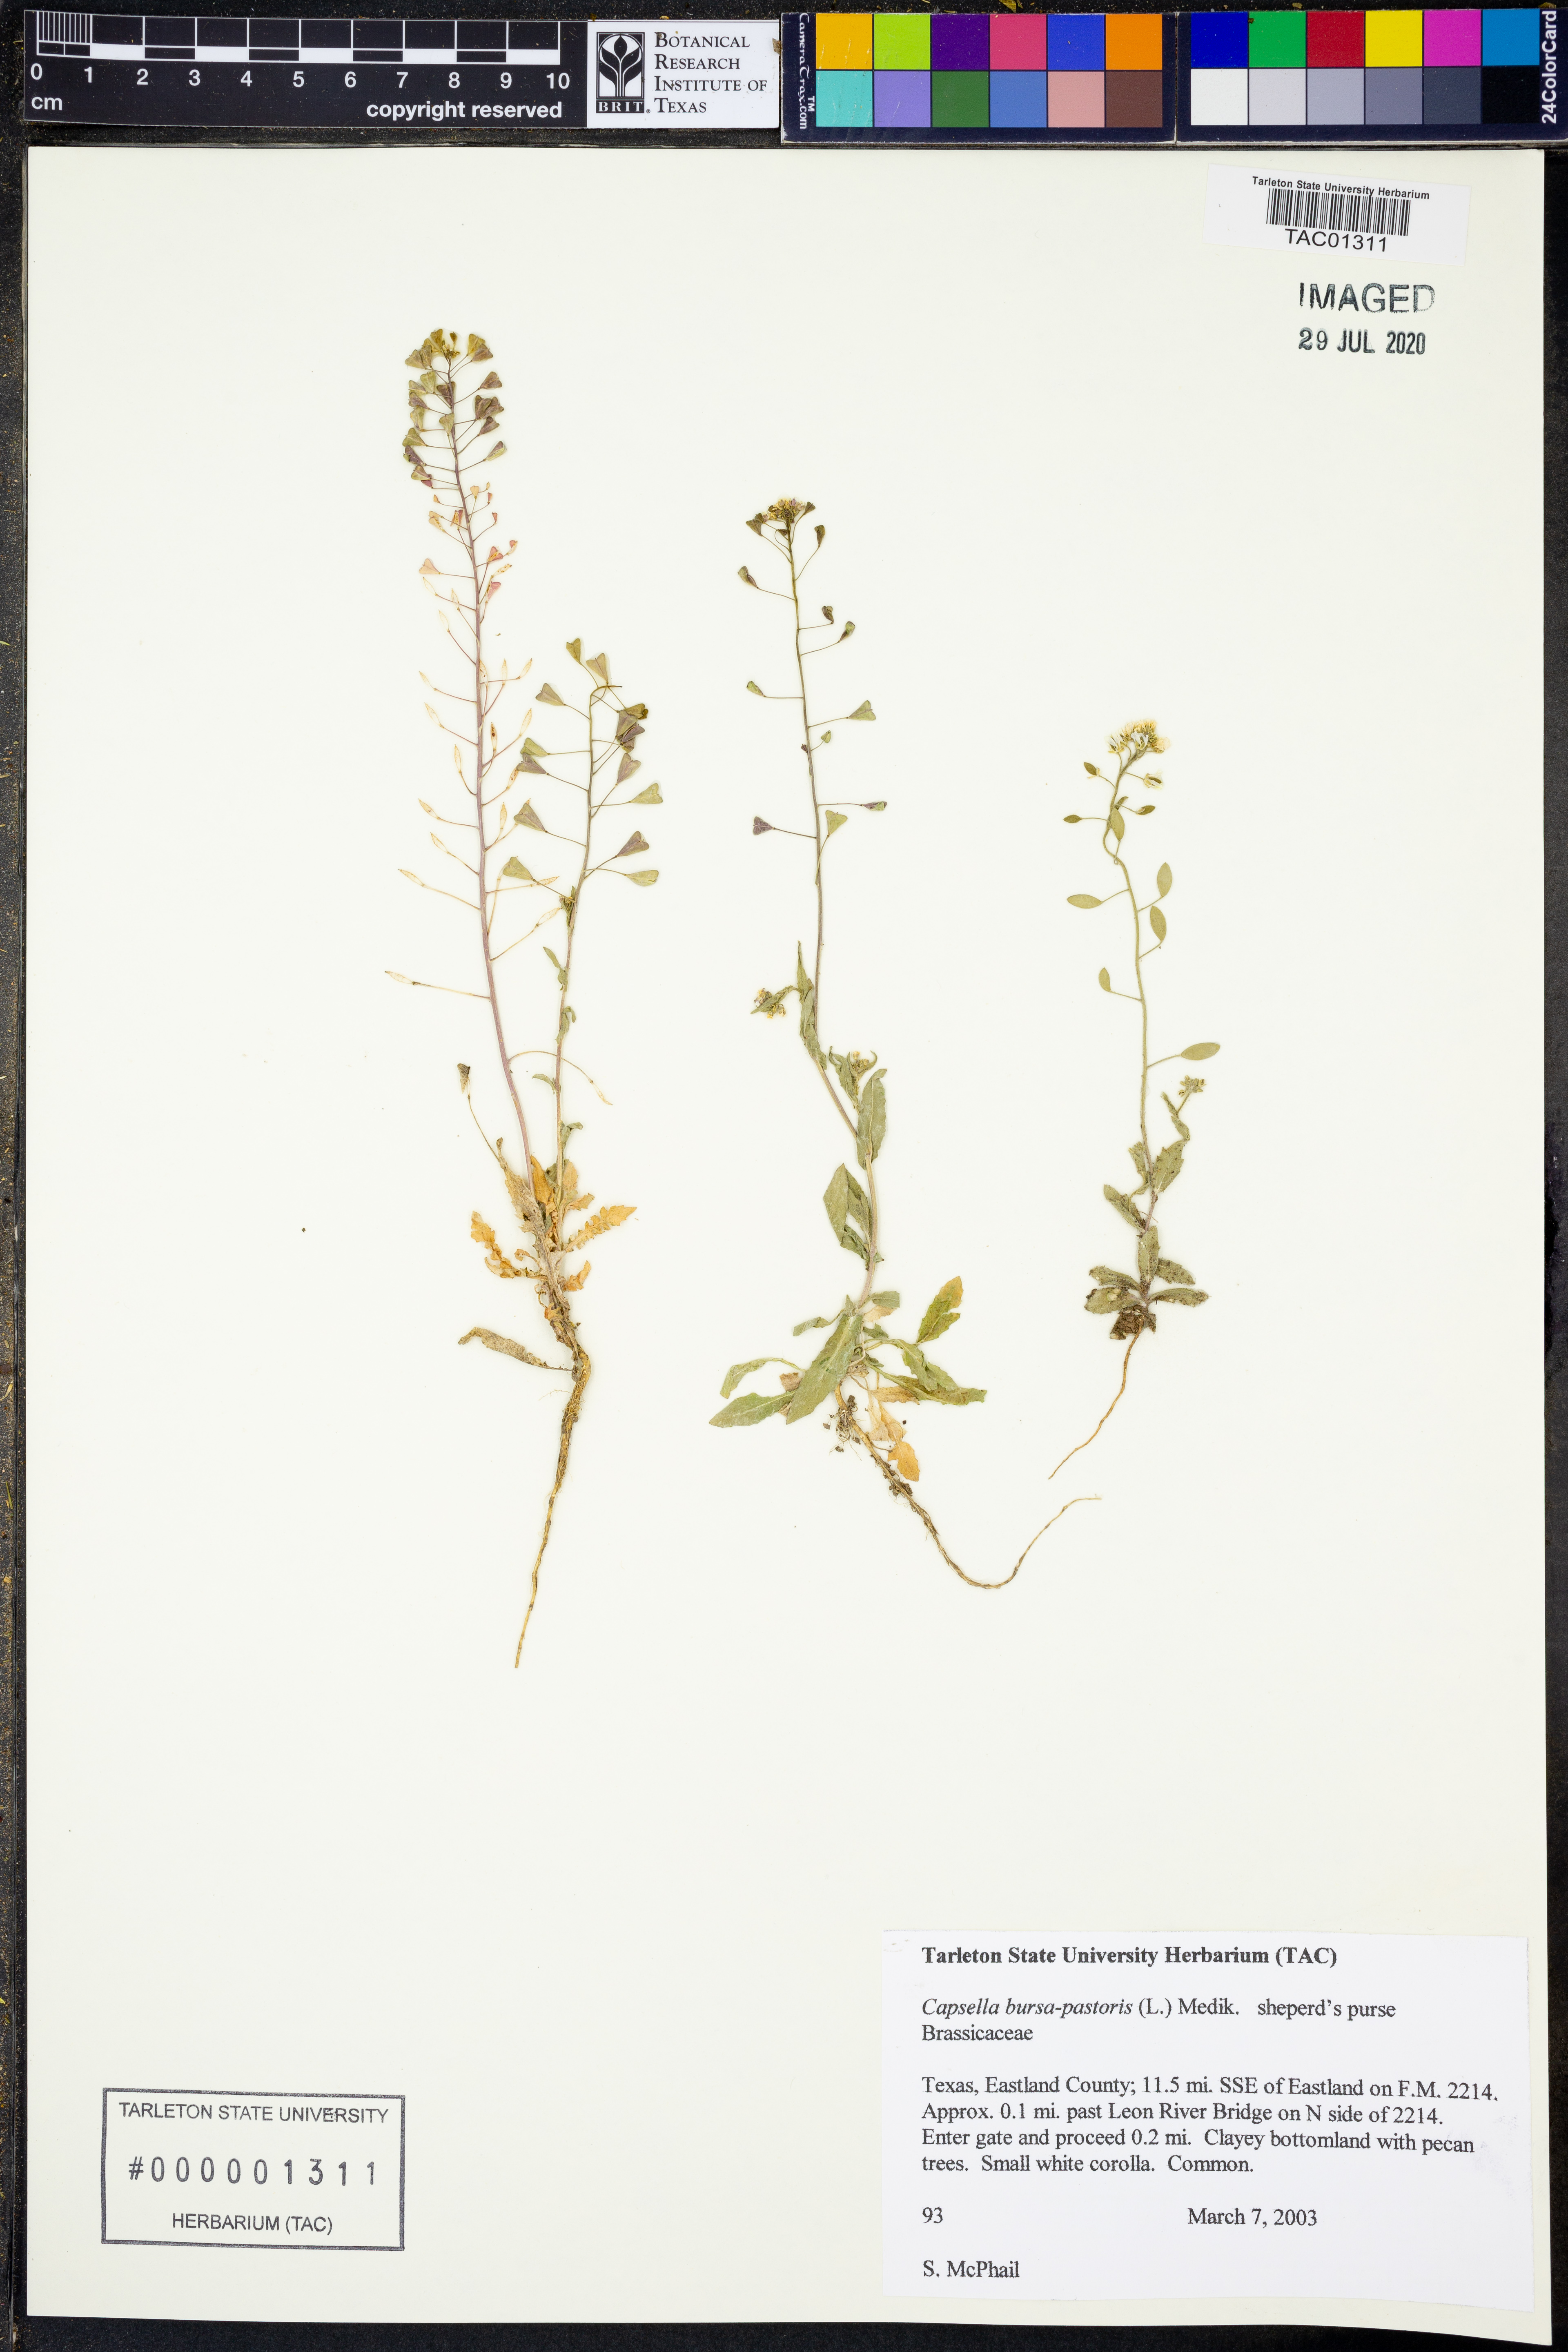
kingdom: Plantae
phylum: Tracheophyta
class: Magnoliopsida
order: Brassicales
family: Brassicaceae
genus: Capsella
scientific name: Capsella bursa-pastoris
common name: Shepherd's purse
